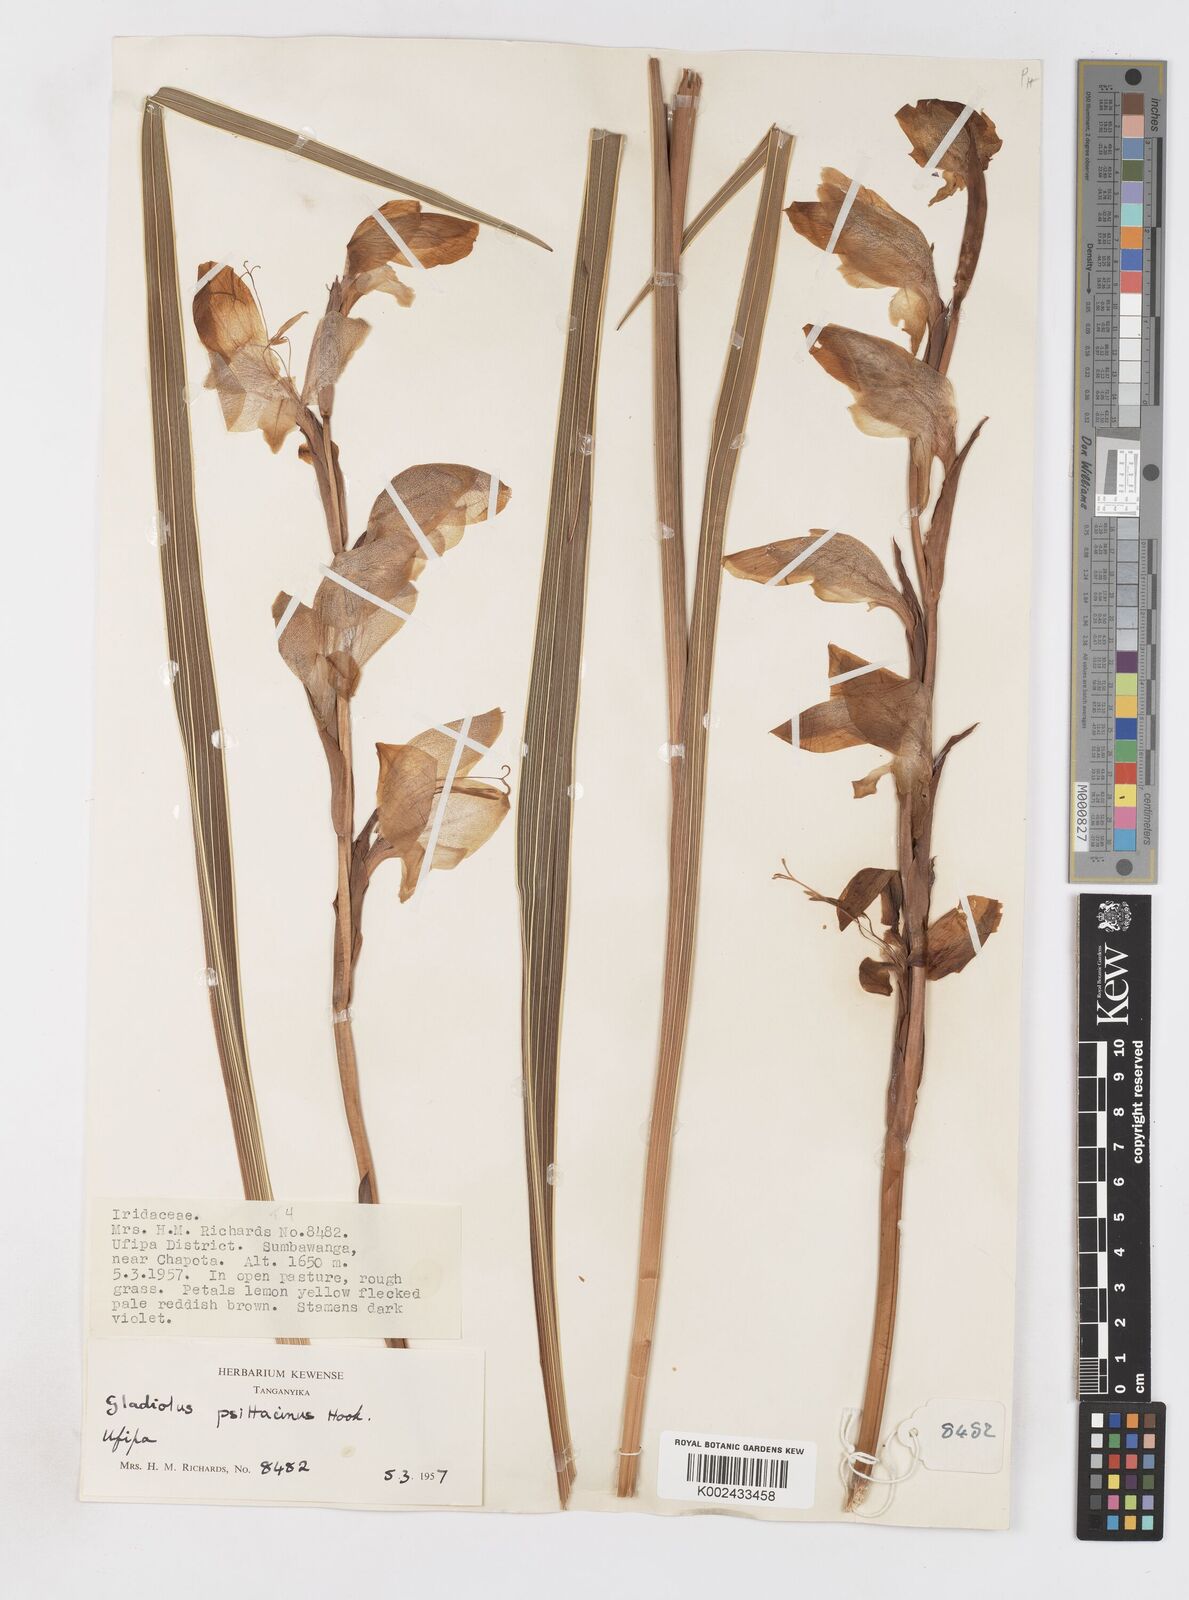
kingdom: Plantae
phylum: Tracheophyta
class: Liliopsida
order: Asparagales
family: Iridaceae
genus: Gladiolus
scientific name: Gladiolus dalenii
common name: Cornflag
